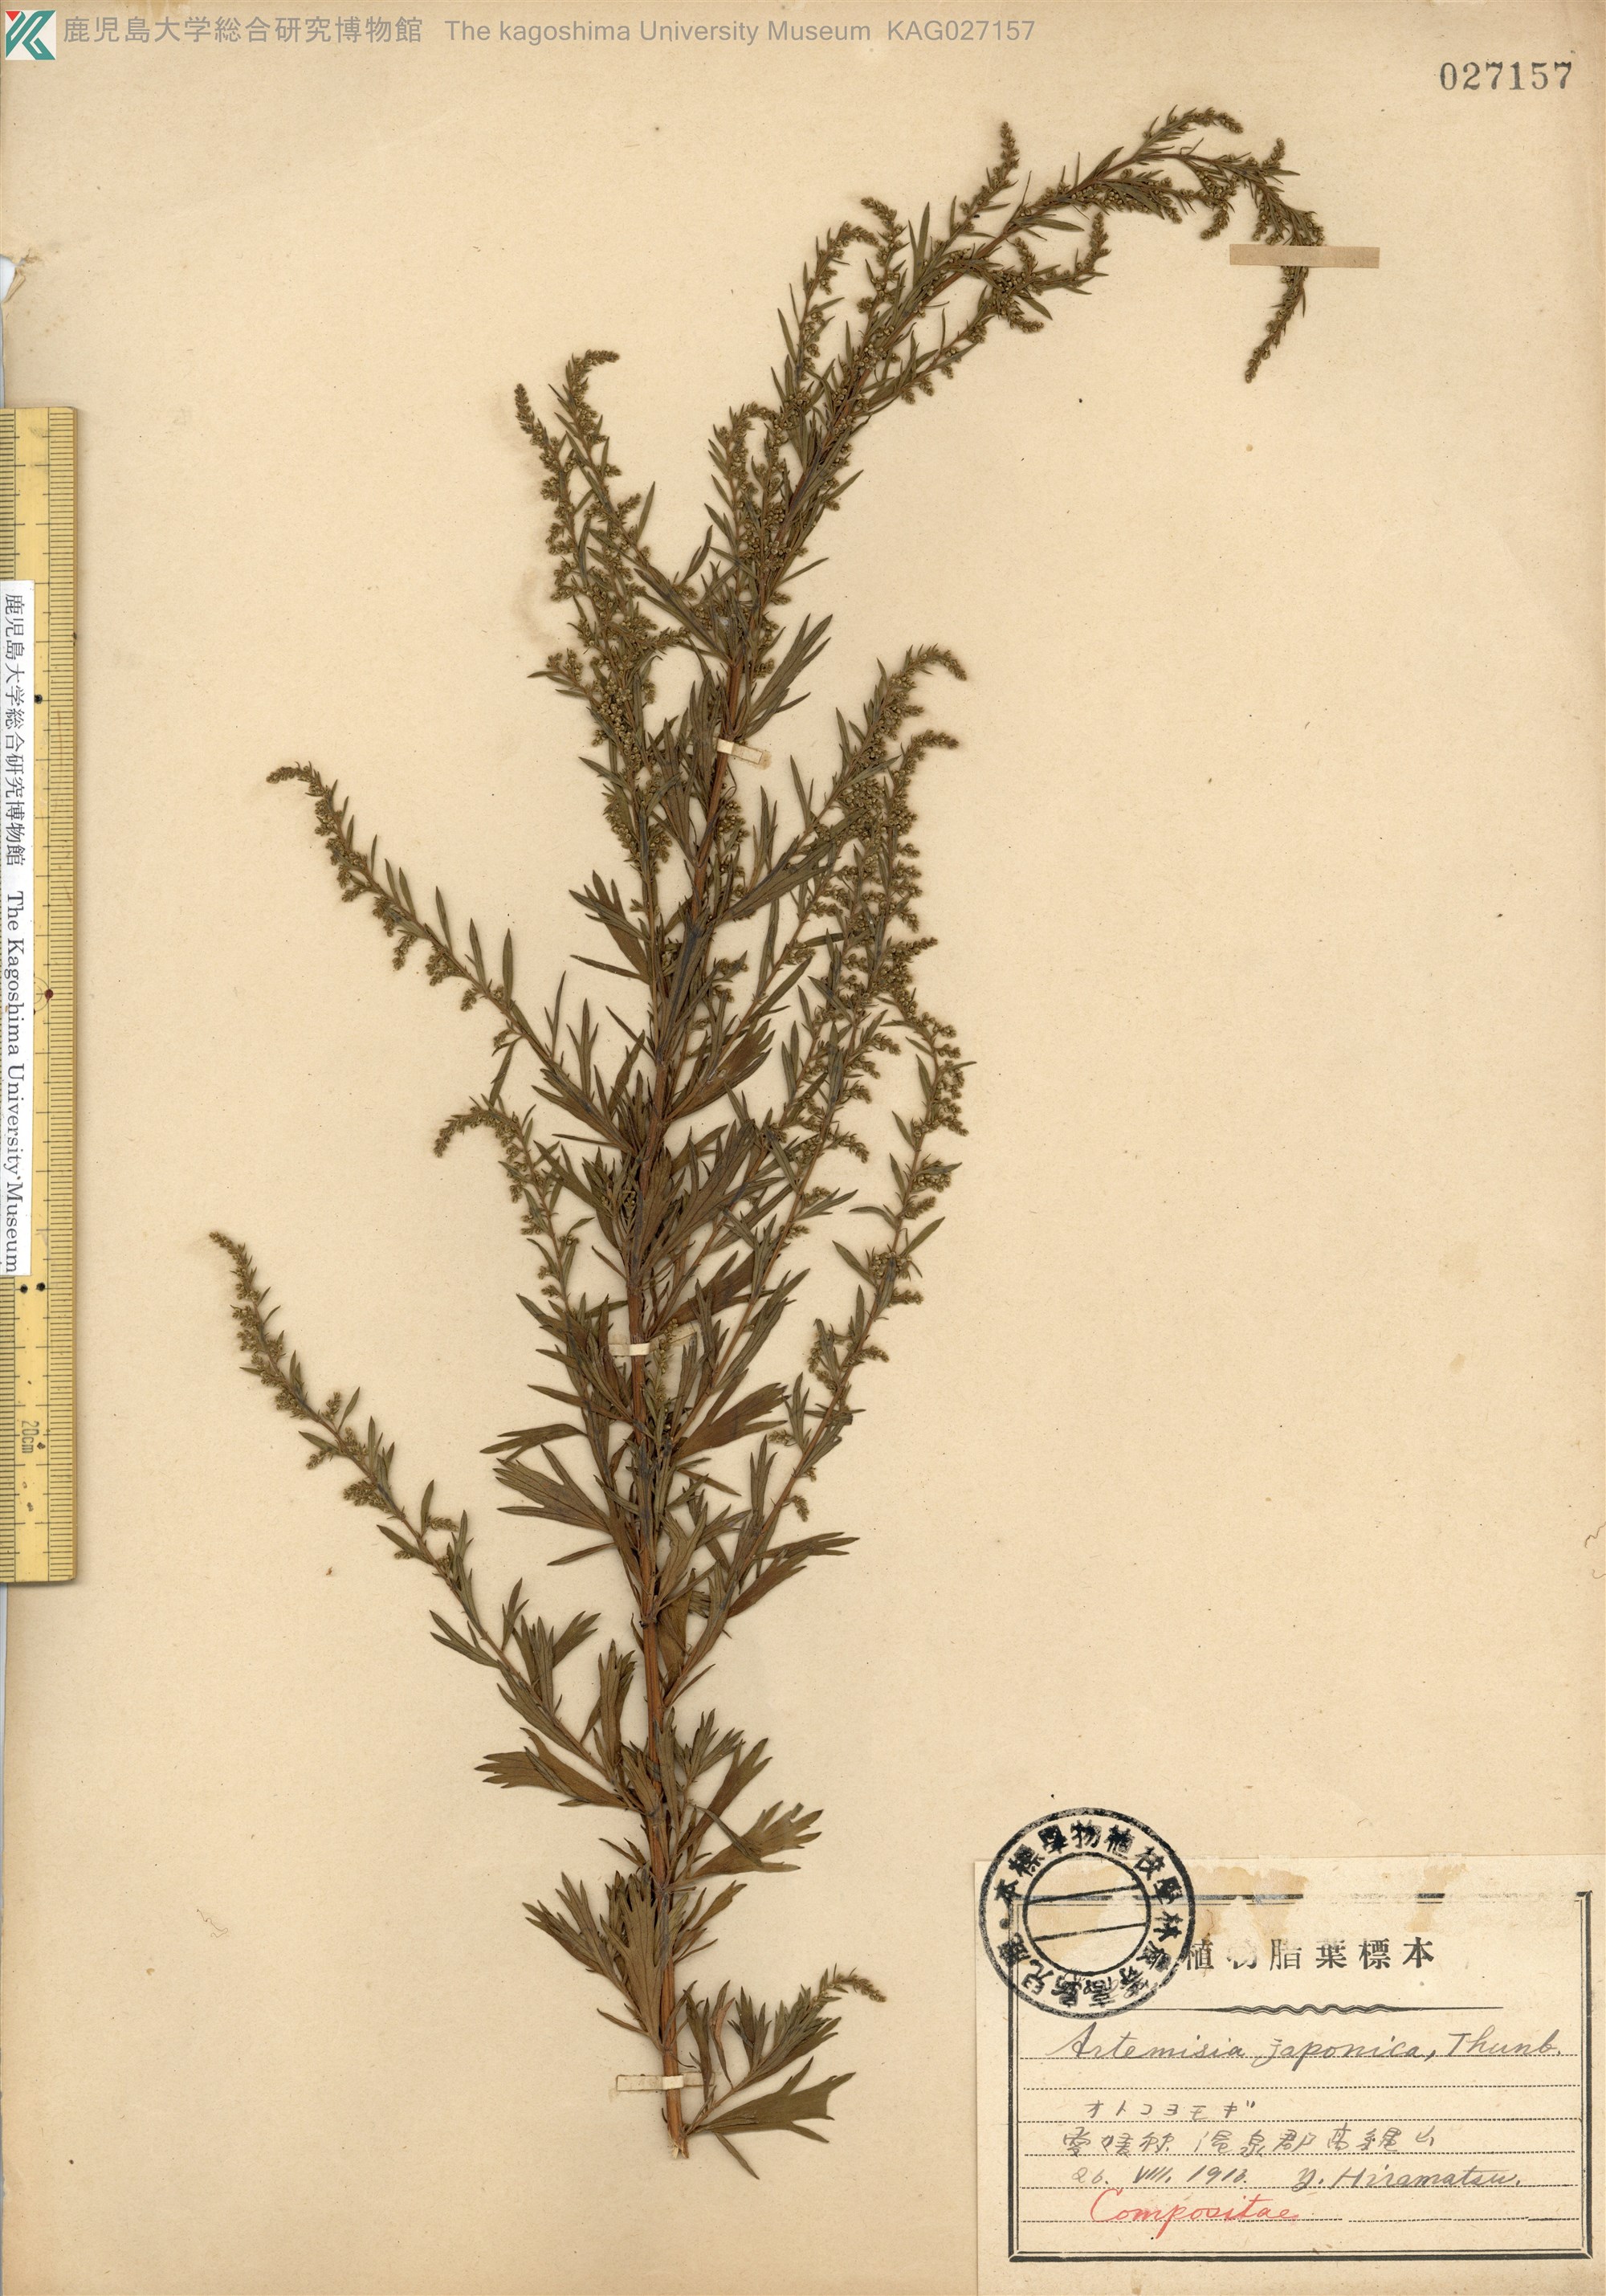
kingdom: Plantae
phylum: Tracheophyta
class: Magnoliopsida
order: Asterales
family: Asteraceae
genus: Artemisia
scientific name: Artemisia japonica
